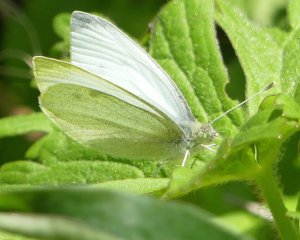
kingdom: Animalia
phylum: Arthropoda
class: Insecta
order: Lepidoptera
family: Pieridae
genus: Pieris
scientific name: Pieris rapae
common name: Cabbage White
